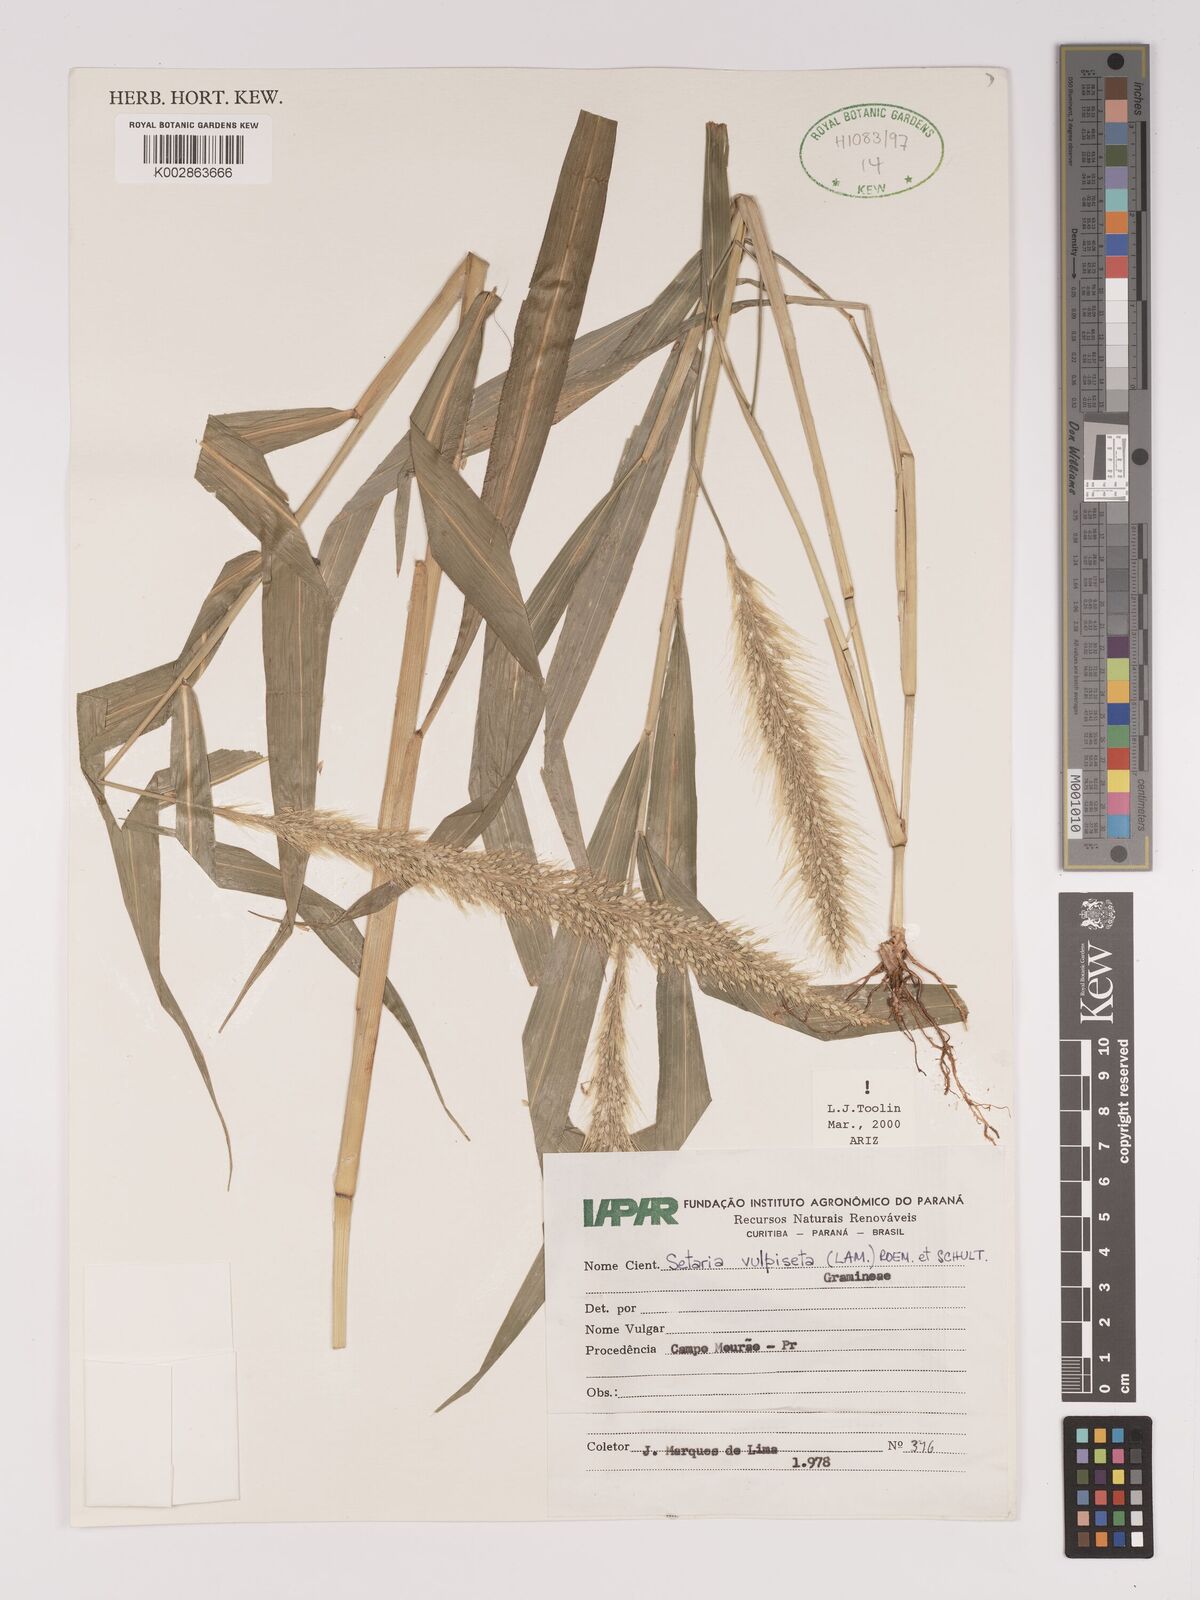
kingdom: Plantae
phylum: Tracheophyta
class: Liliopsida
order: Poales
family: Poaceae
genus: Setaria
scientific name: Setaria vulpiseta
